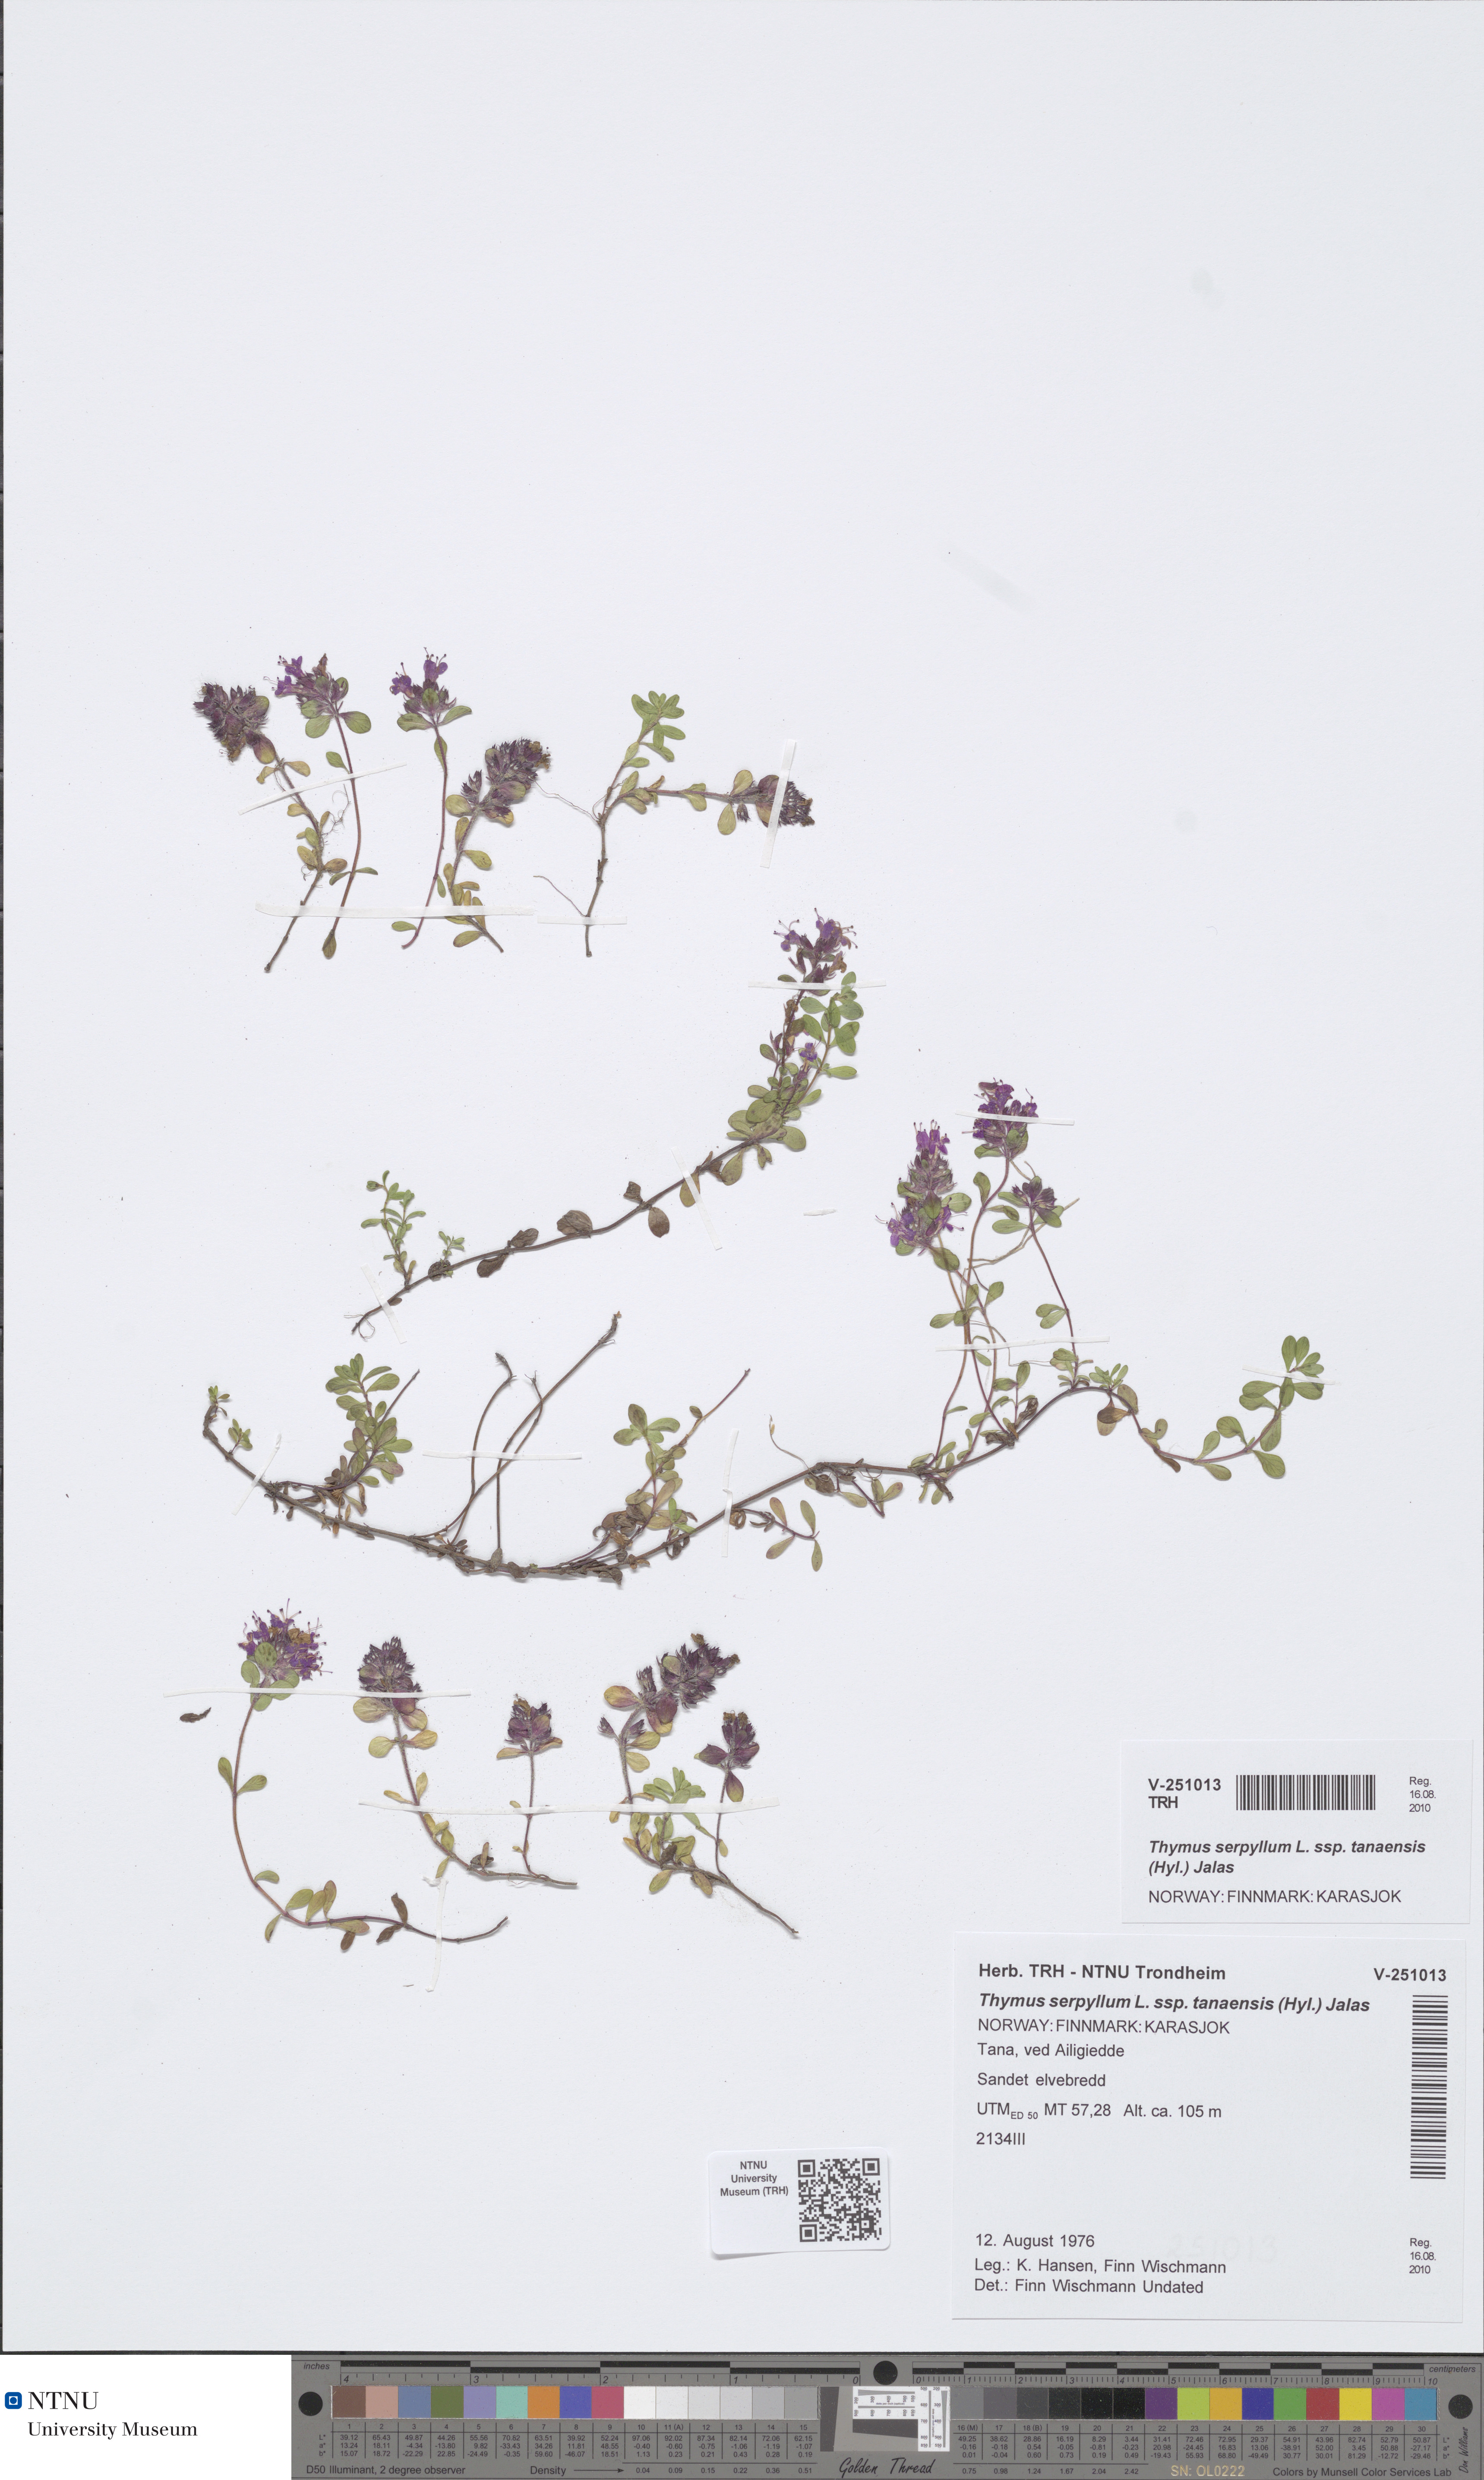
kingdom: Plantae
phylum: Tracheophyta
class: Magnoliopsida
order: Lamiales
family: Lamiaceae
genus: Thymus
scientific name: Thymus serpyllum
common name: Breckland thyme
